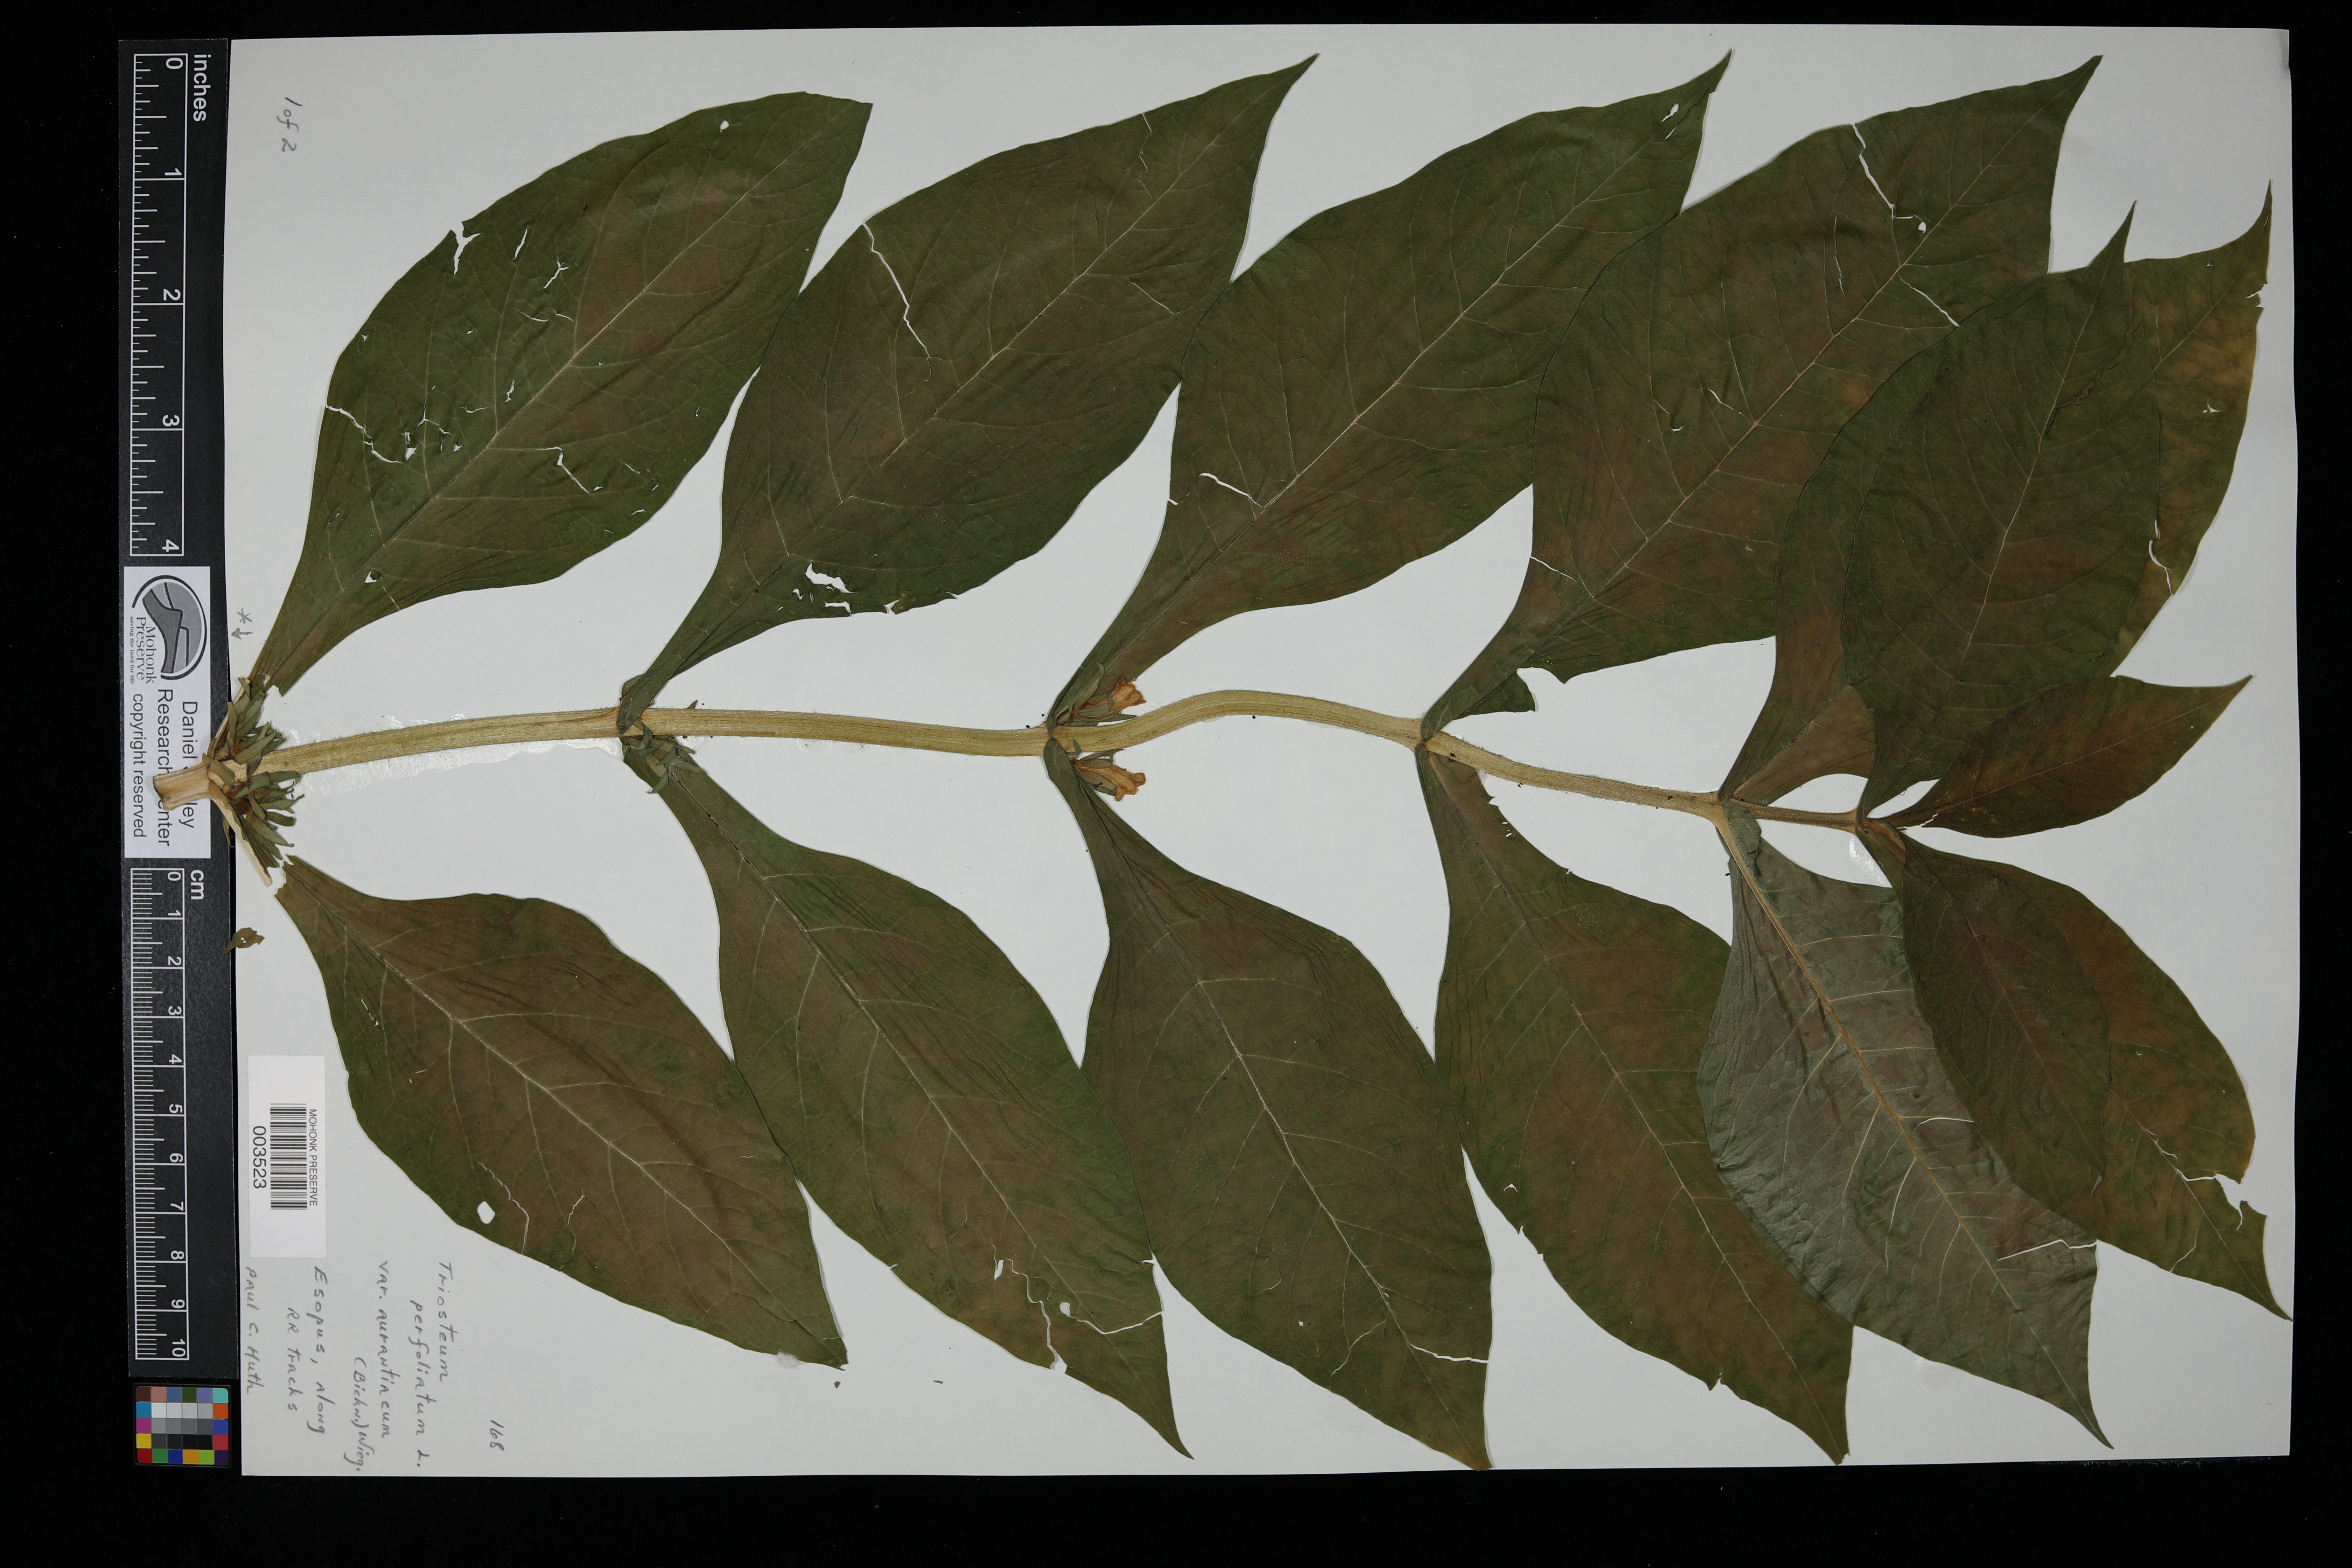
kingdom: Plantae
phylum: Tracheophyta
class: Magnoliopsida
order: Dipsacales
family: Caprifoliaceae
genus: Triosteum
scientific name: Triosteum perfoliatum
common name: Common horse-gentian
